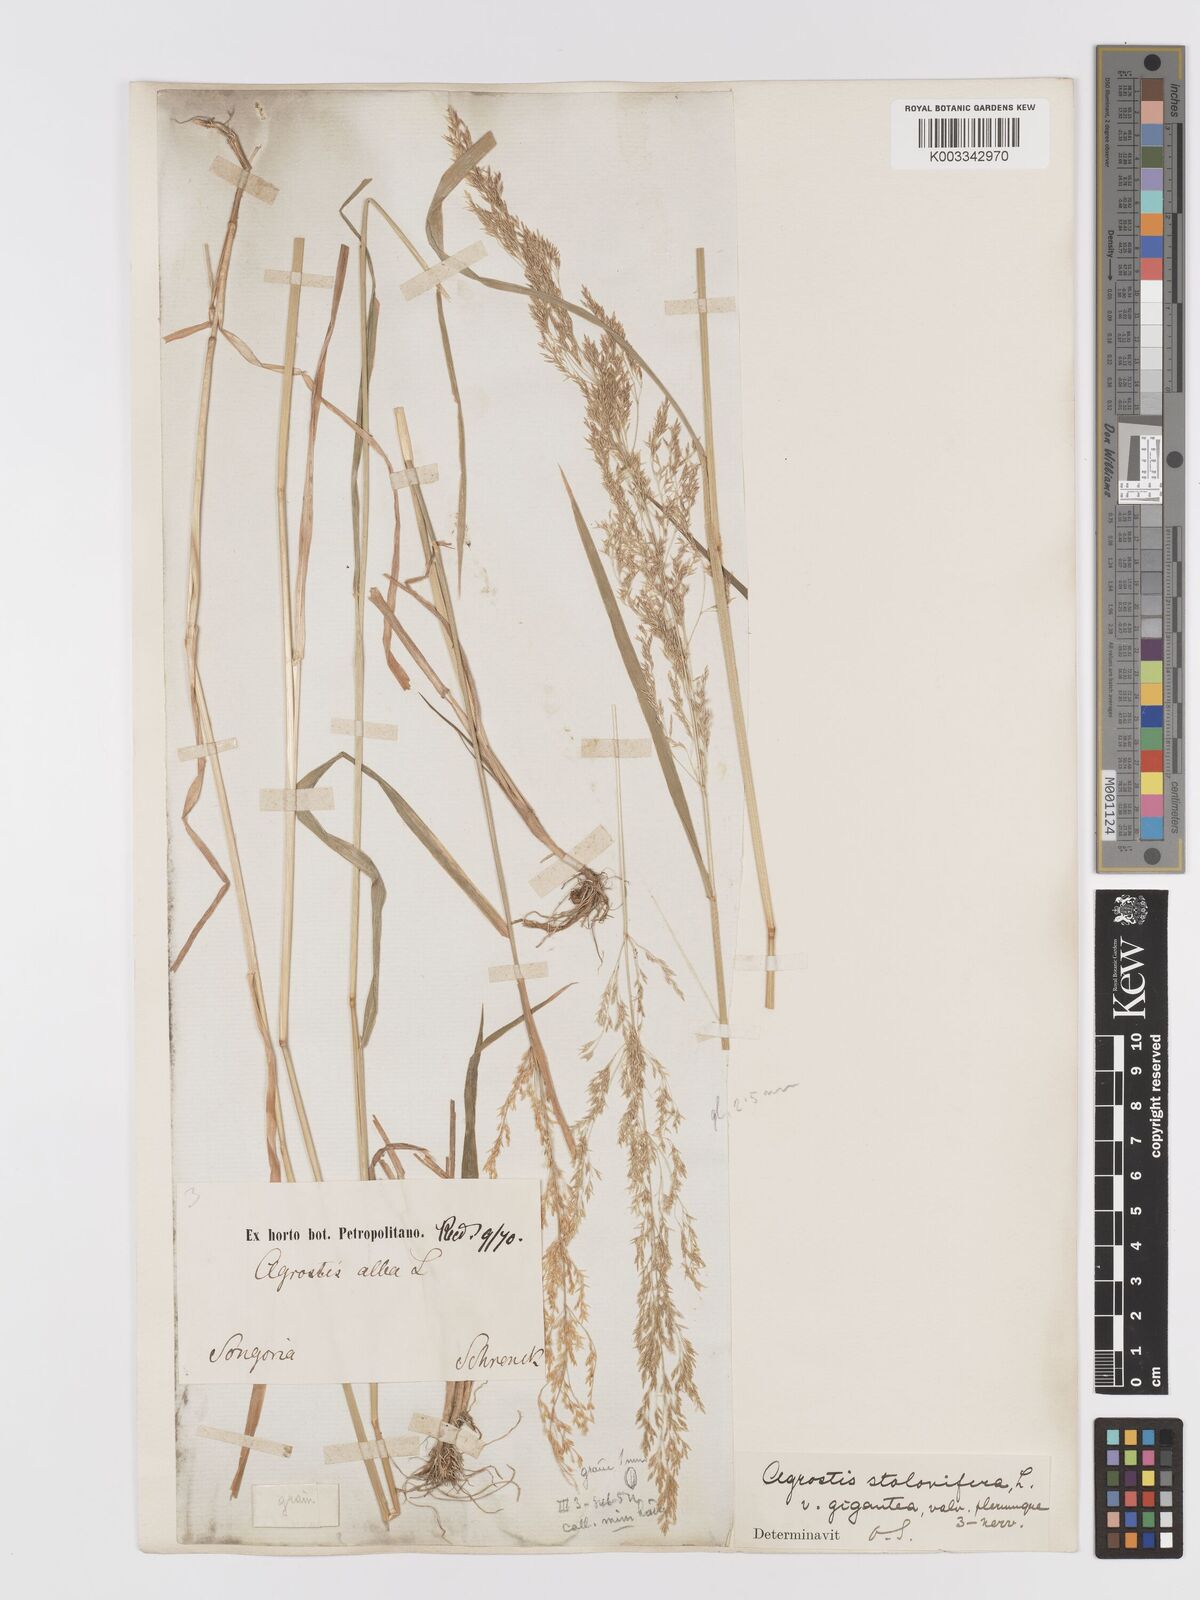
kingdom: Plantae
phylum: Tracheophyta
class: Liliopsida
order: Poales
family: Poaceae
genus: Agrostis
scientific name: Agrostis stolonifera
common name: Creeping bentgrass
